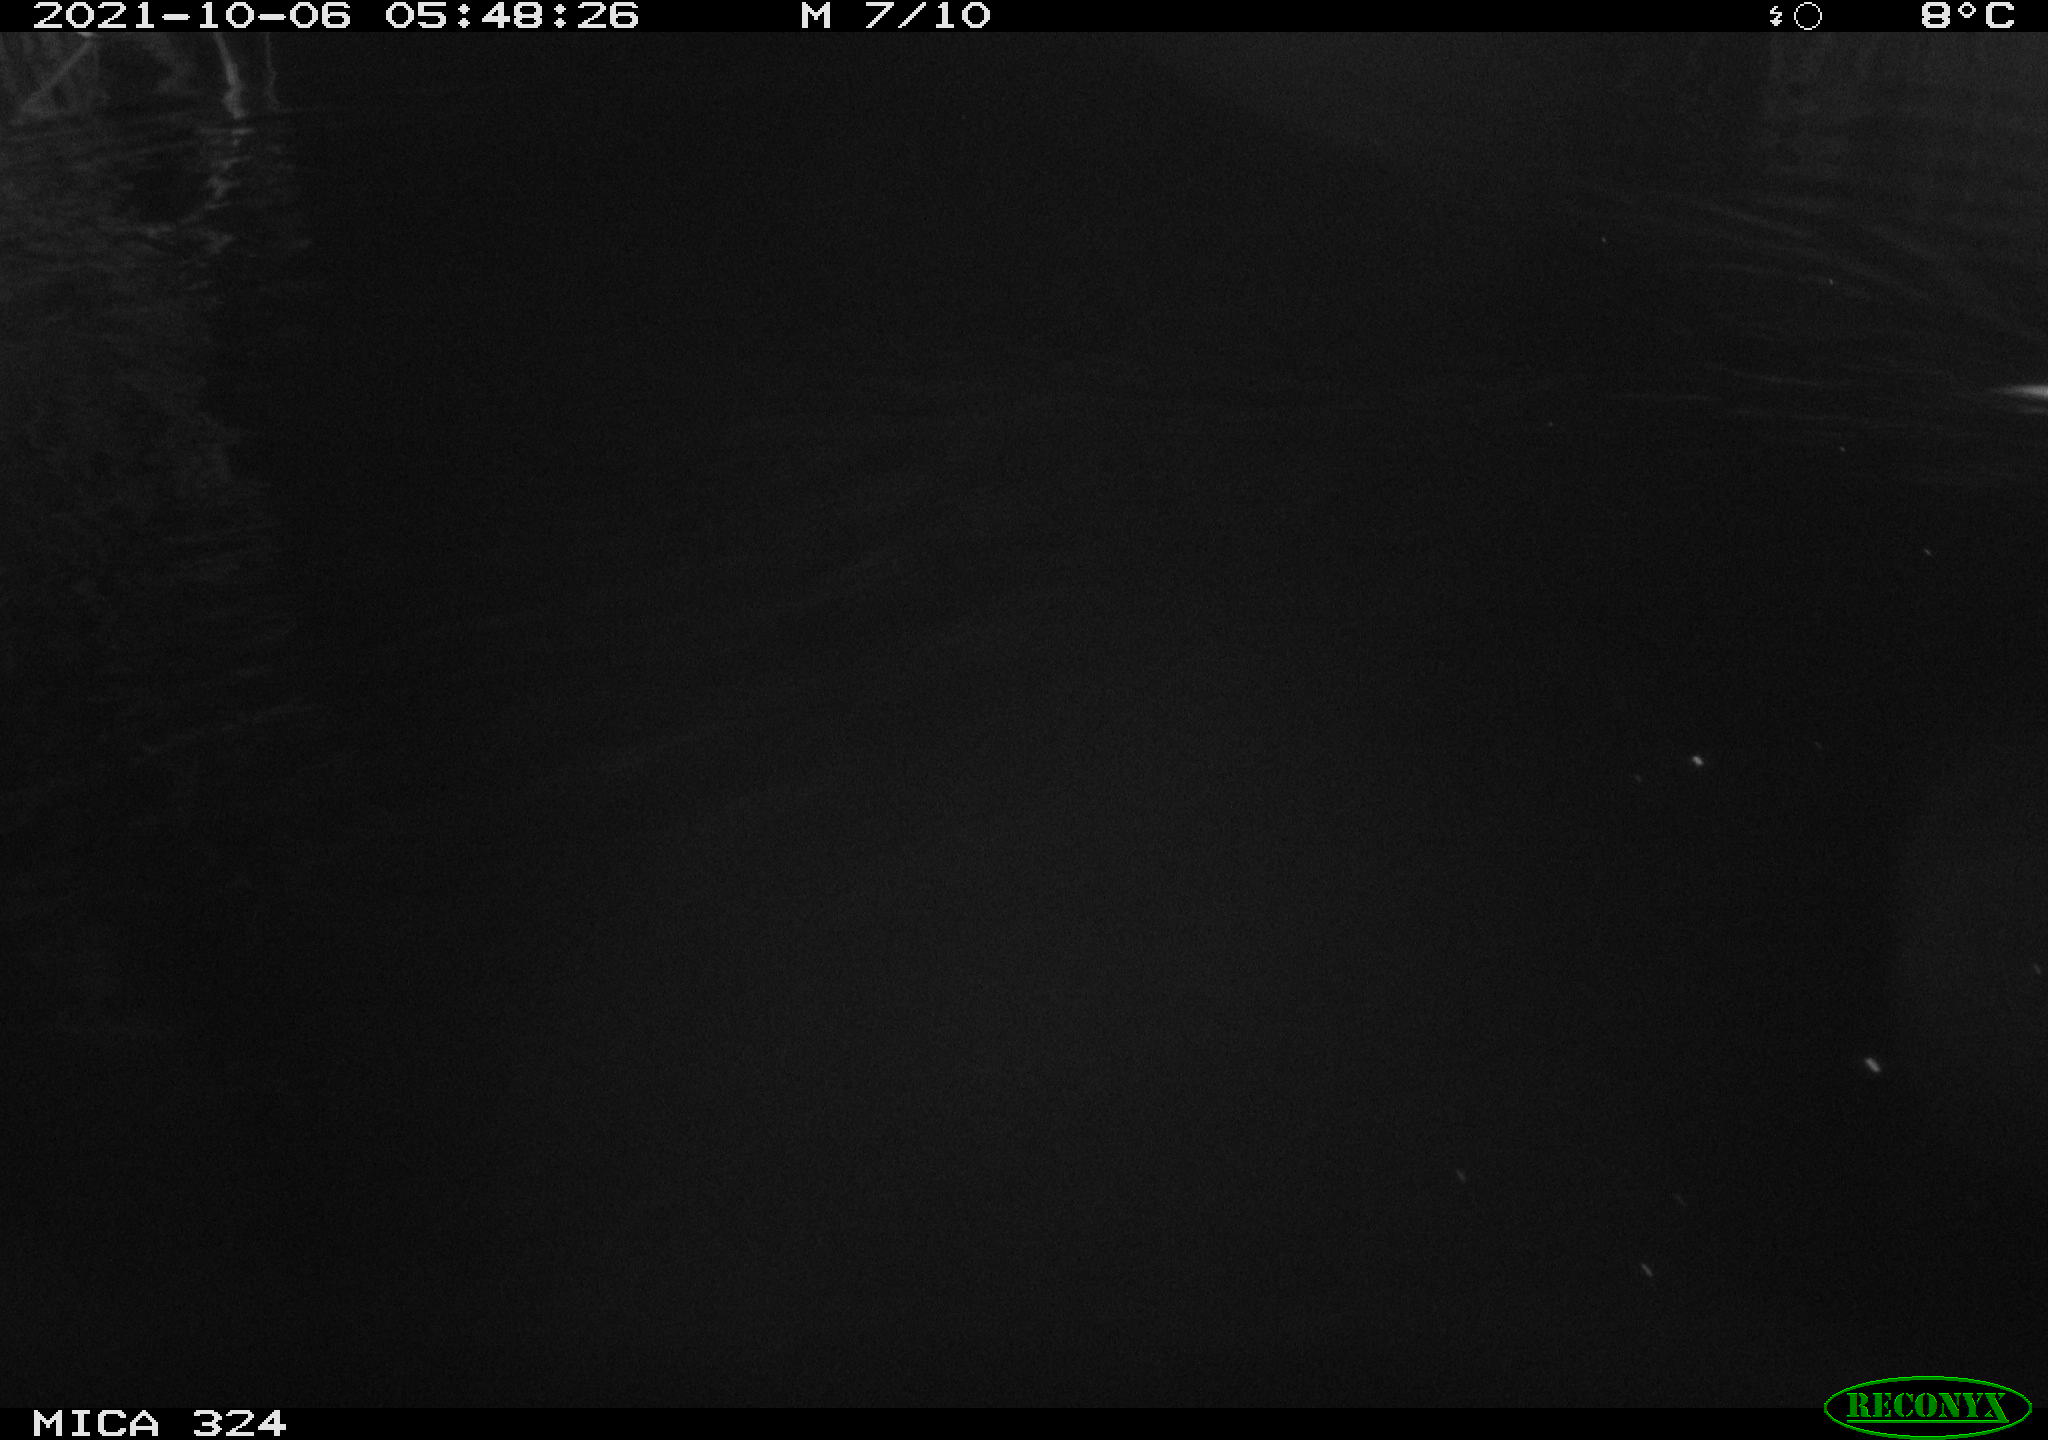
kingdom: Animalia
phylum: Chordata
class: Mammalia
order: Rodentia
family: Cricetidae
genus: Ondatra
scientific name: Ondatra zibethicus
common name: Muskrat
